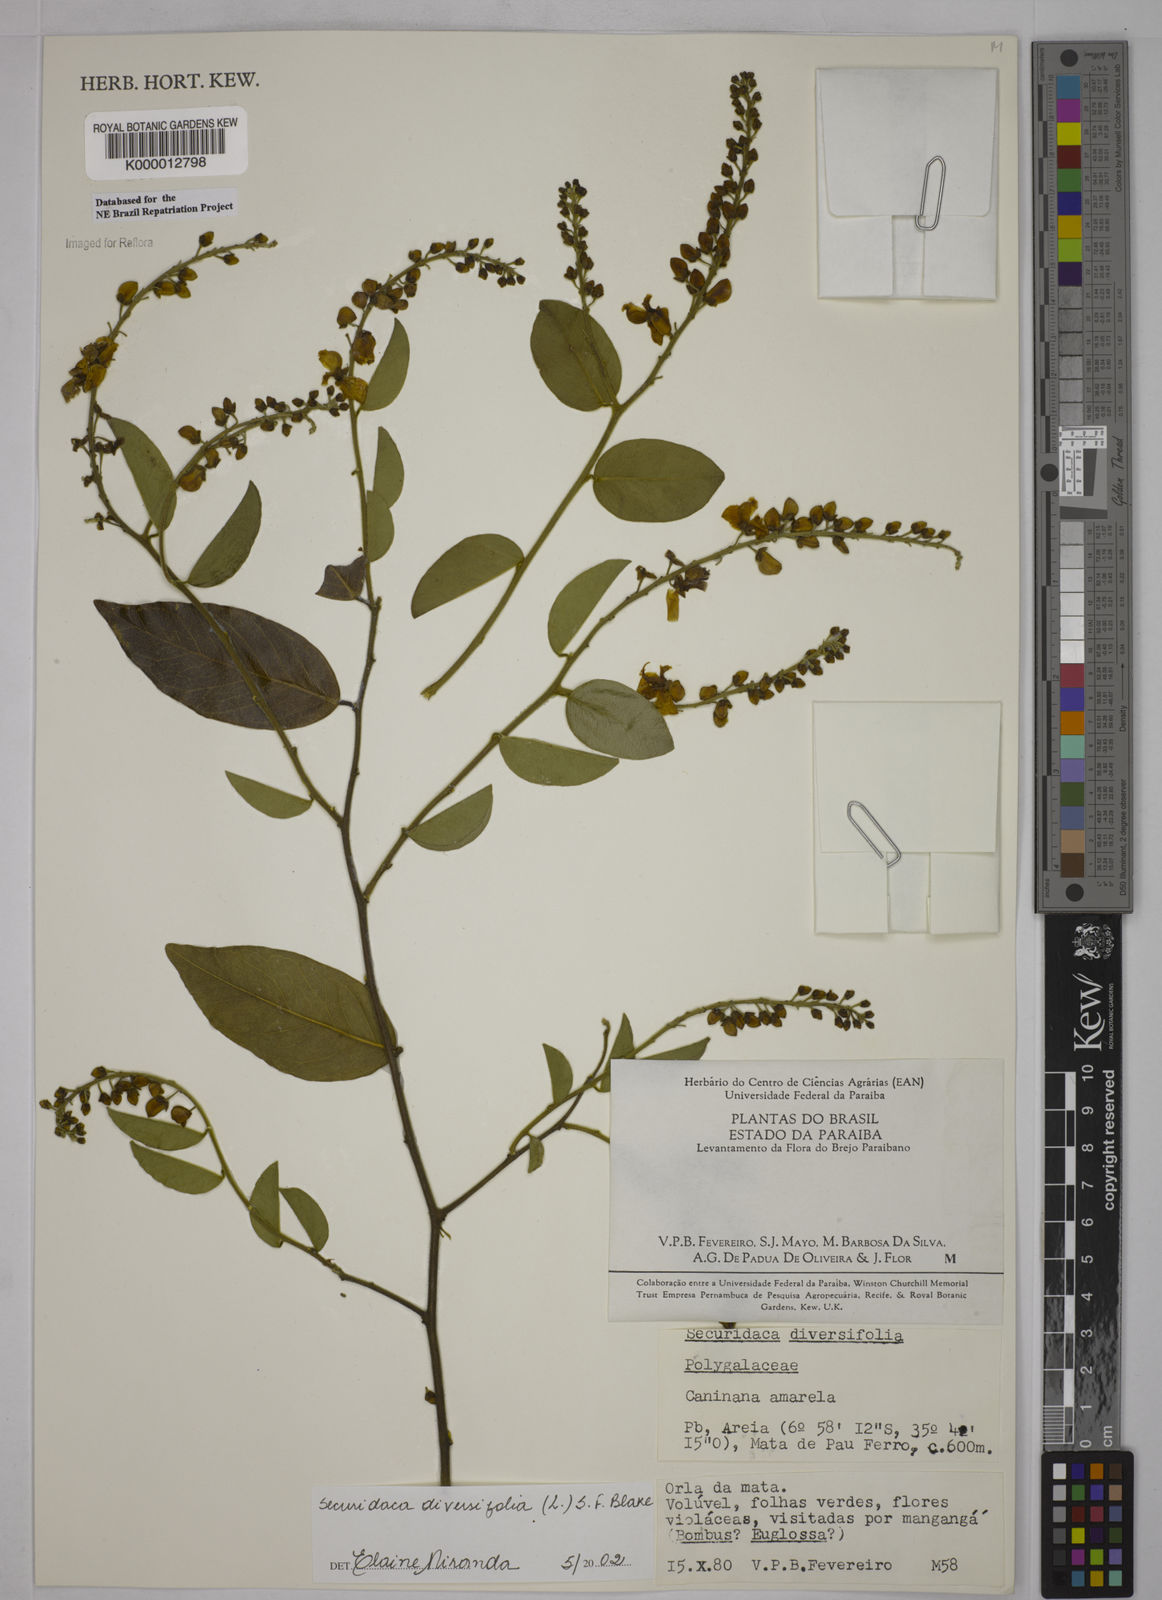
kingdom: Plantae
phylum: Tracheophyta
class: Magnoliopsida
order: Fabales
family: Polygalaceae
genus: Securidaca
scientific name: Securidaca diversifolia
